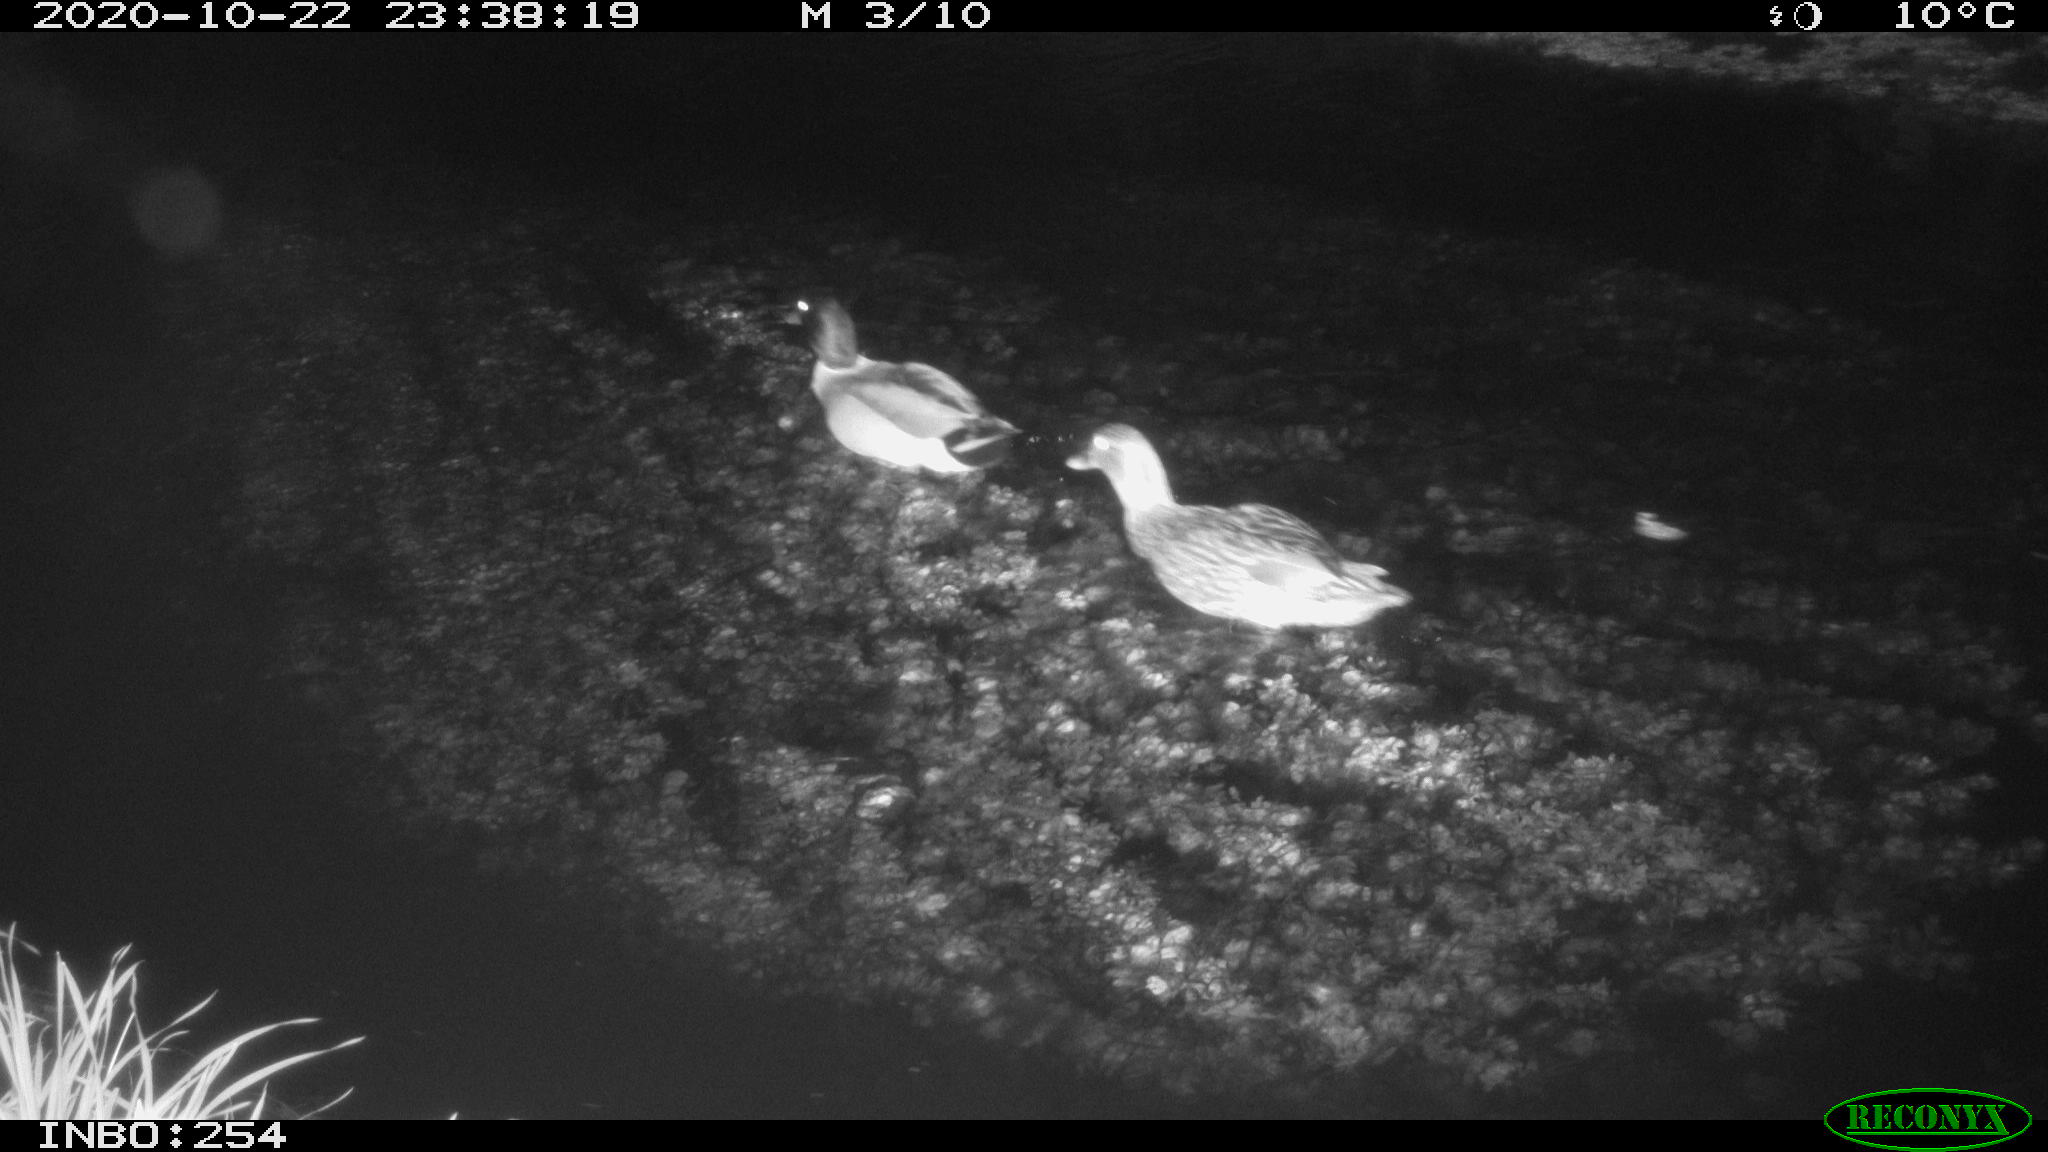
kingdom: Animalia
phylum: Chordata
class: Aves
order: Anseriformes
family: Anatidae
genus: Anas
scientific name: Anas platyrhynchos
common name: Mallard
